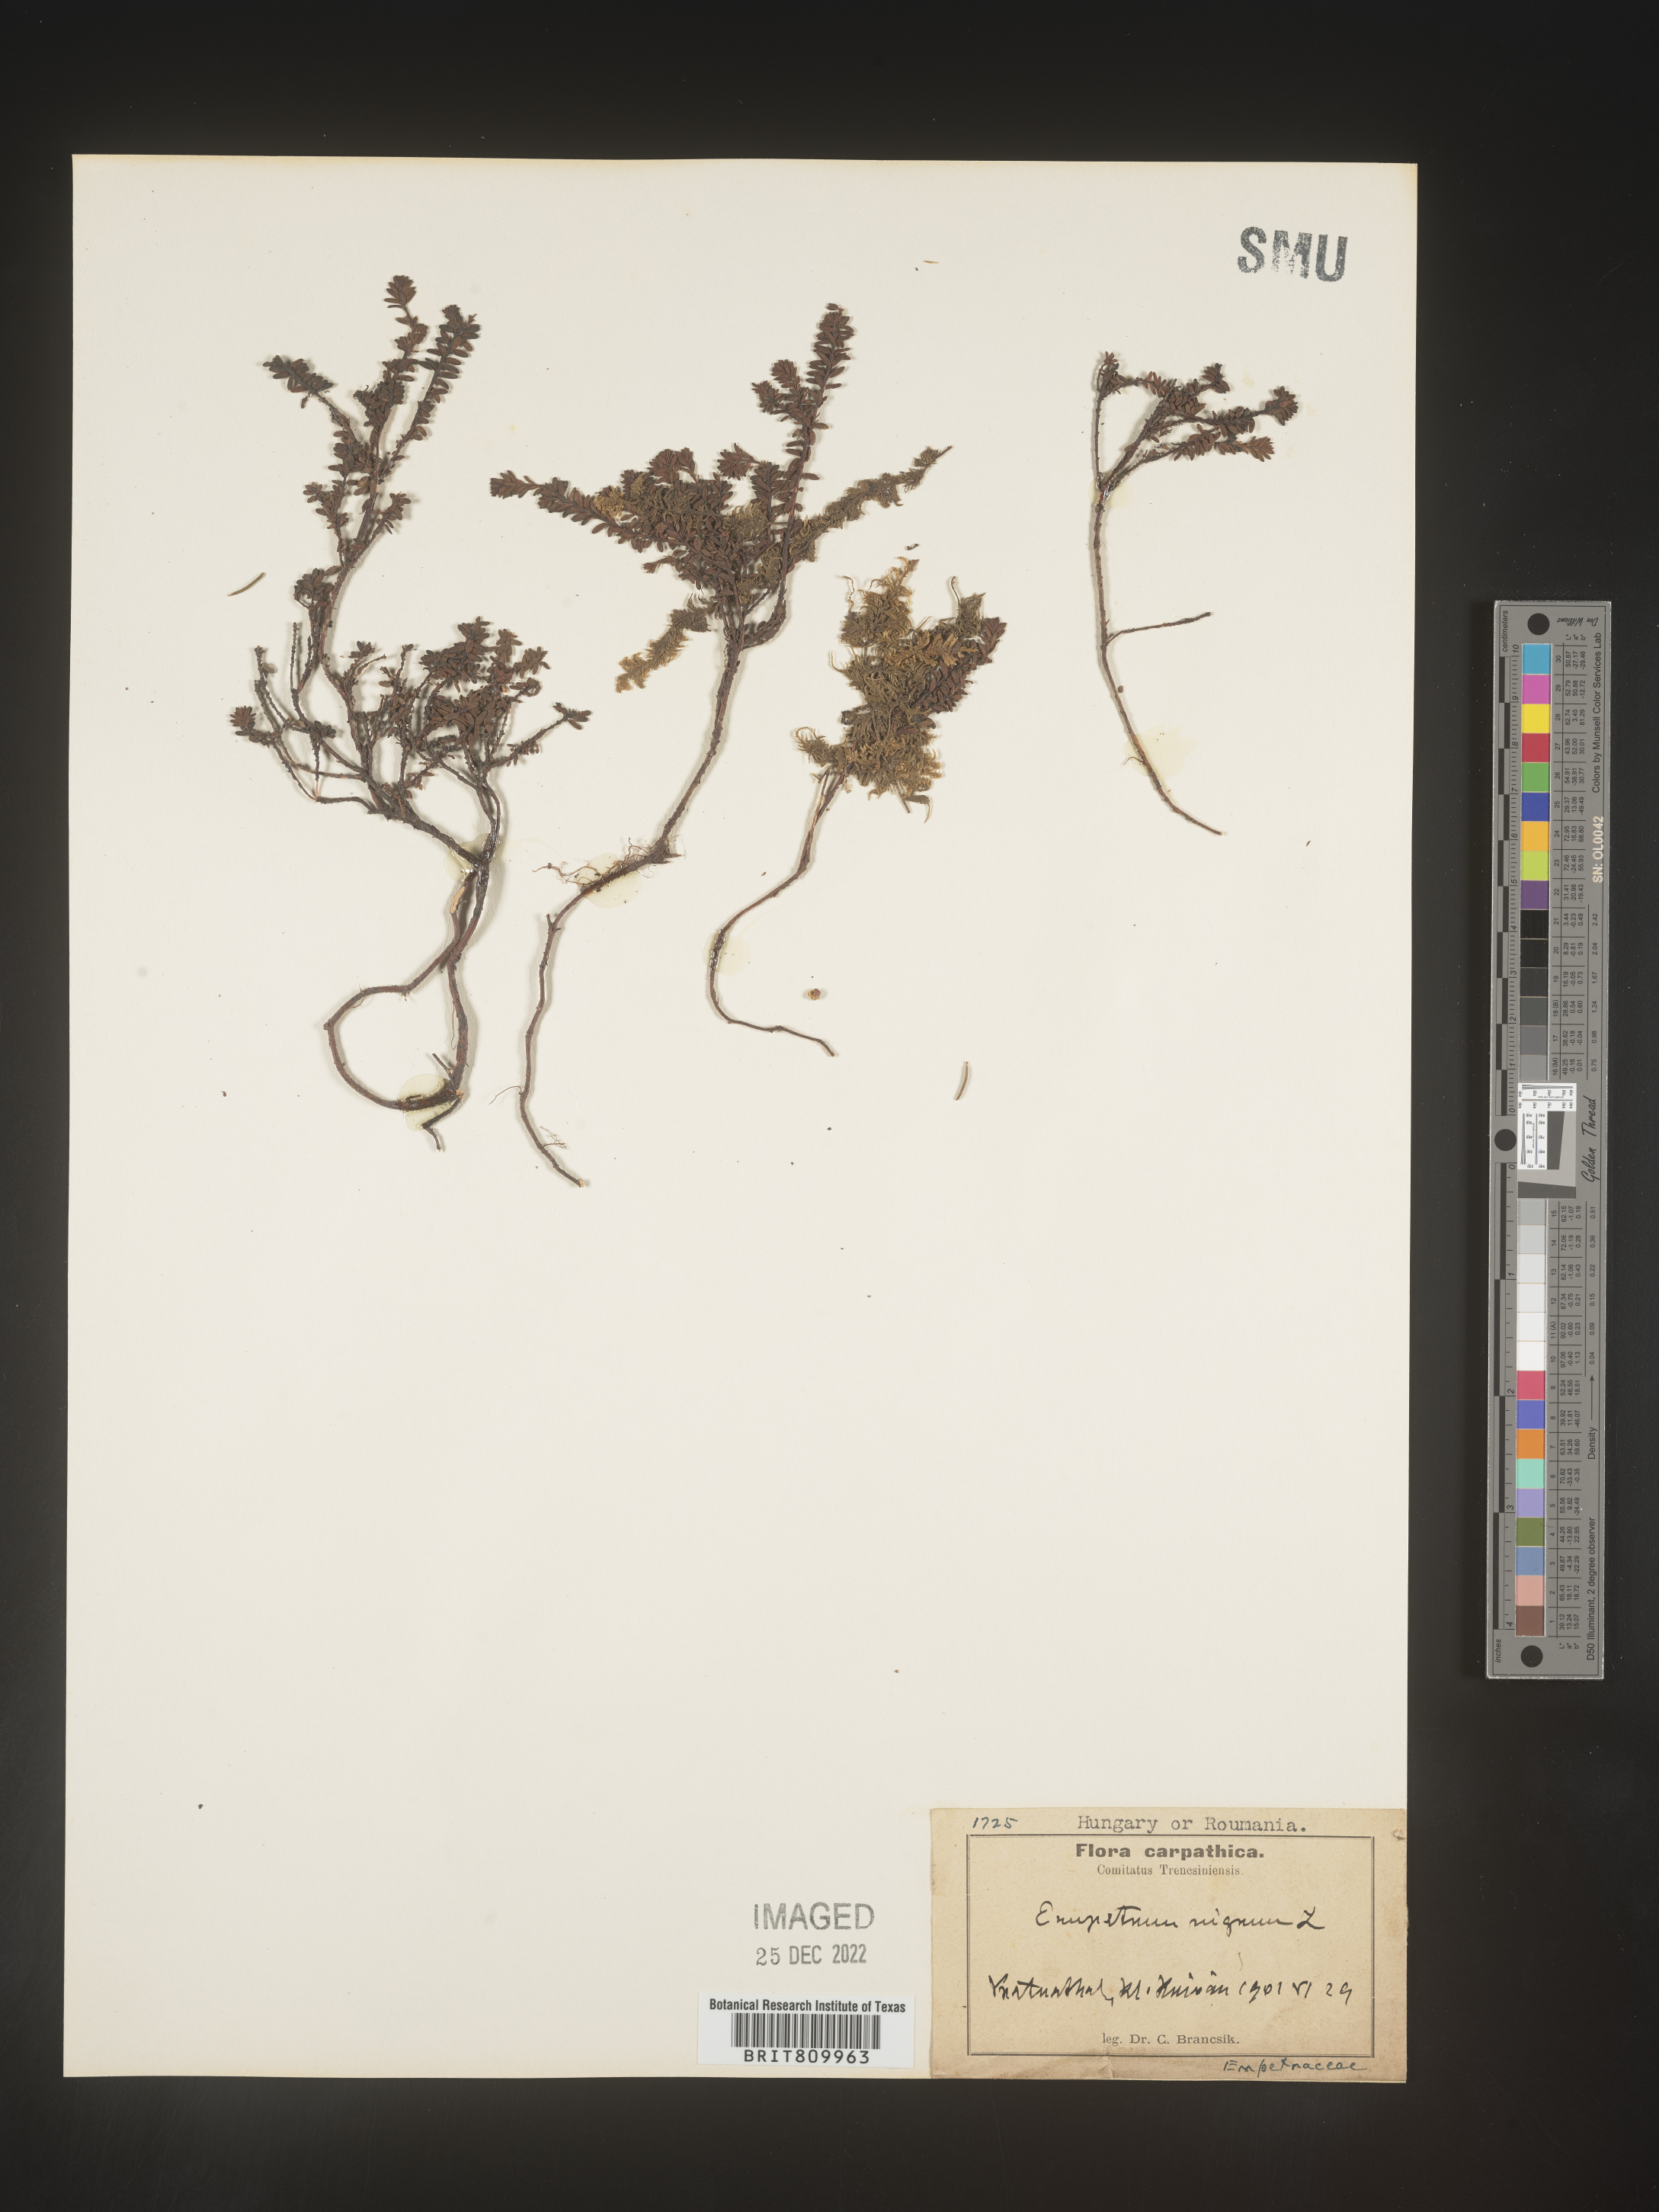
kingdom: Plantae
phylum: Tracheophyta
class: Magnoliopsida
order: Ericales
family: Ericaceae
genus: Empetrum
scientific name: Empetrum
